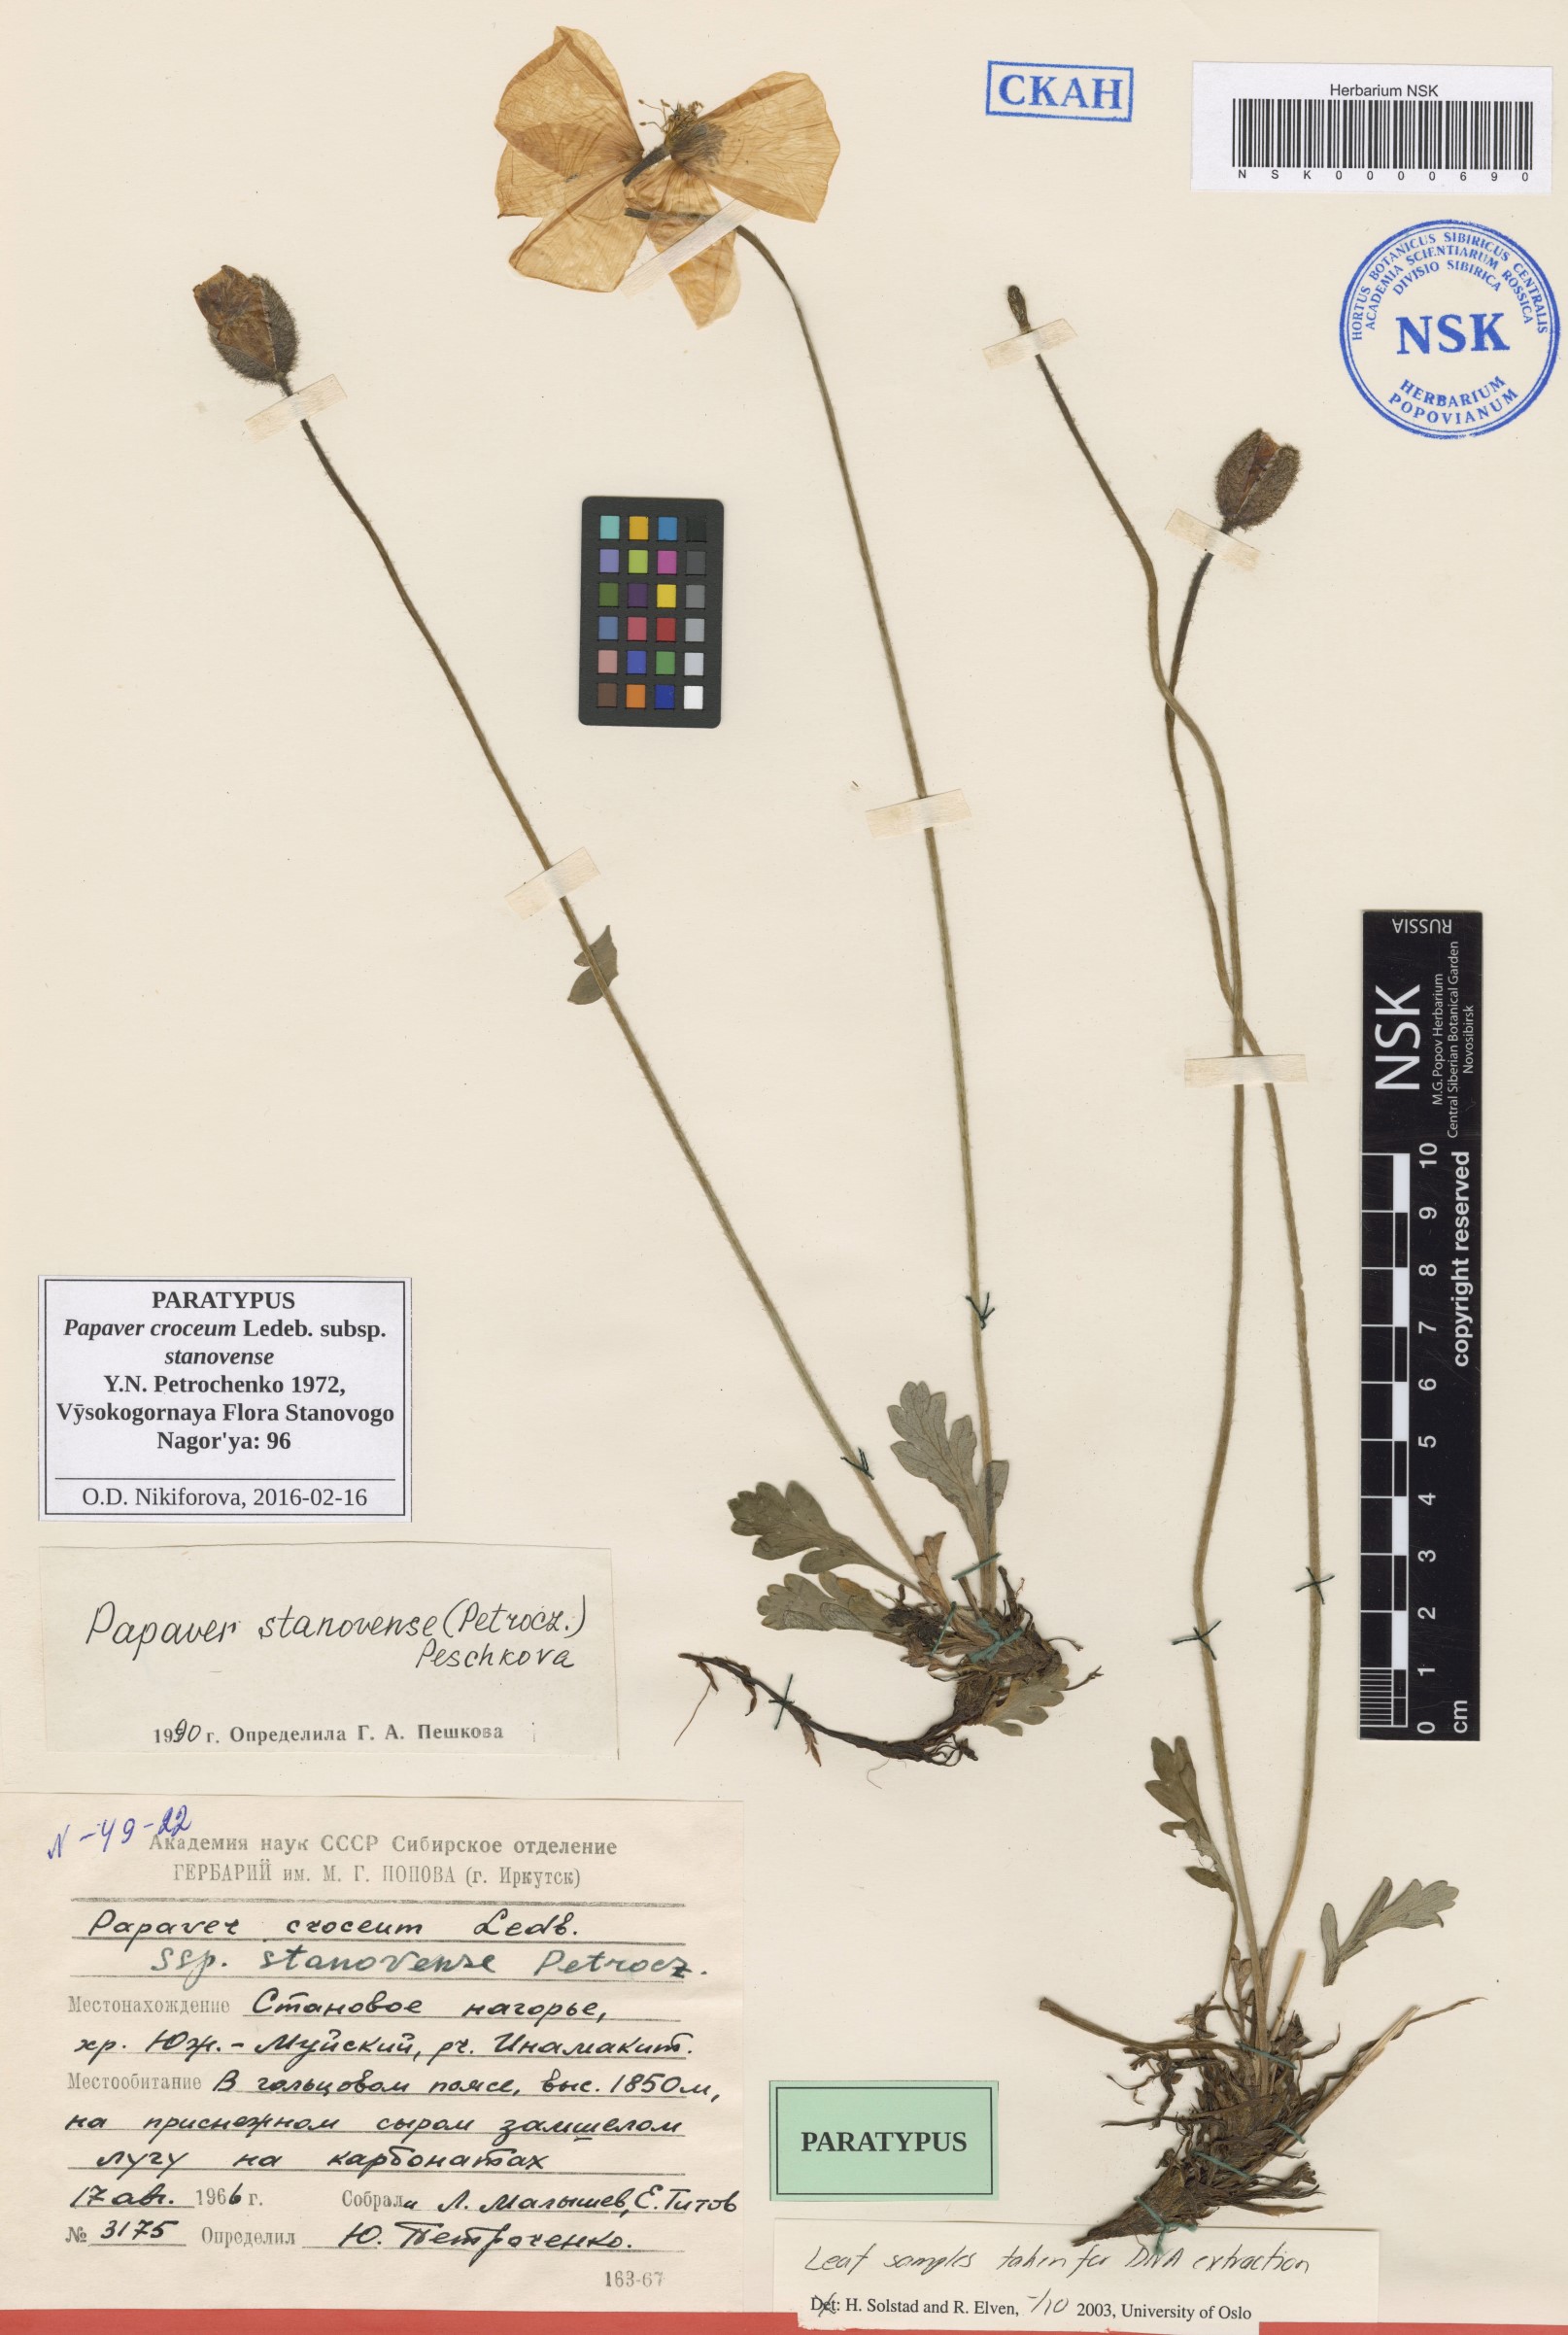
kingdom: Plantae
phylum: Tracheophyta
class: Magnoliopsida
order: Ranunculales
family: Papaveraceae
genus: Papaver
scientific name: Papaver stanovense
